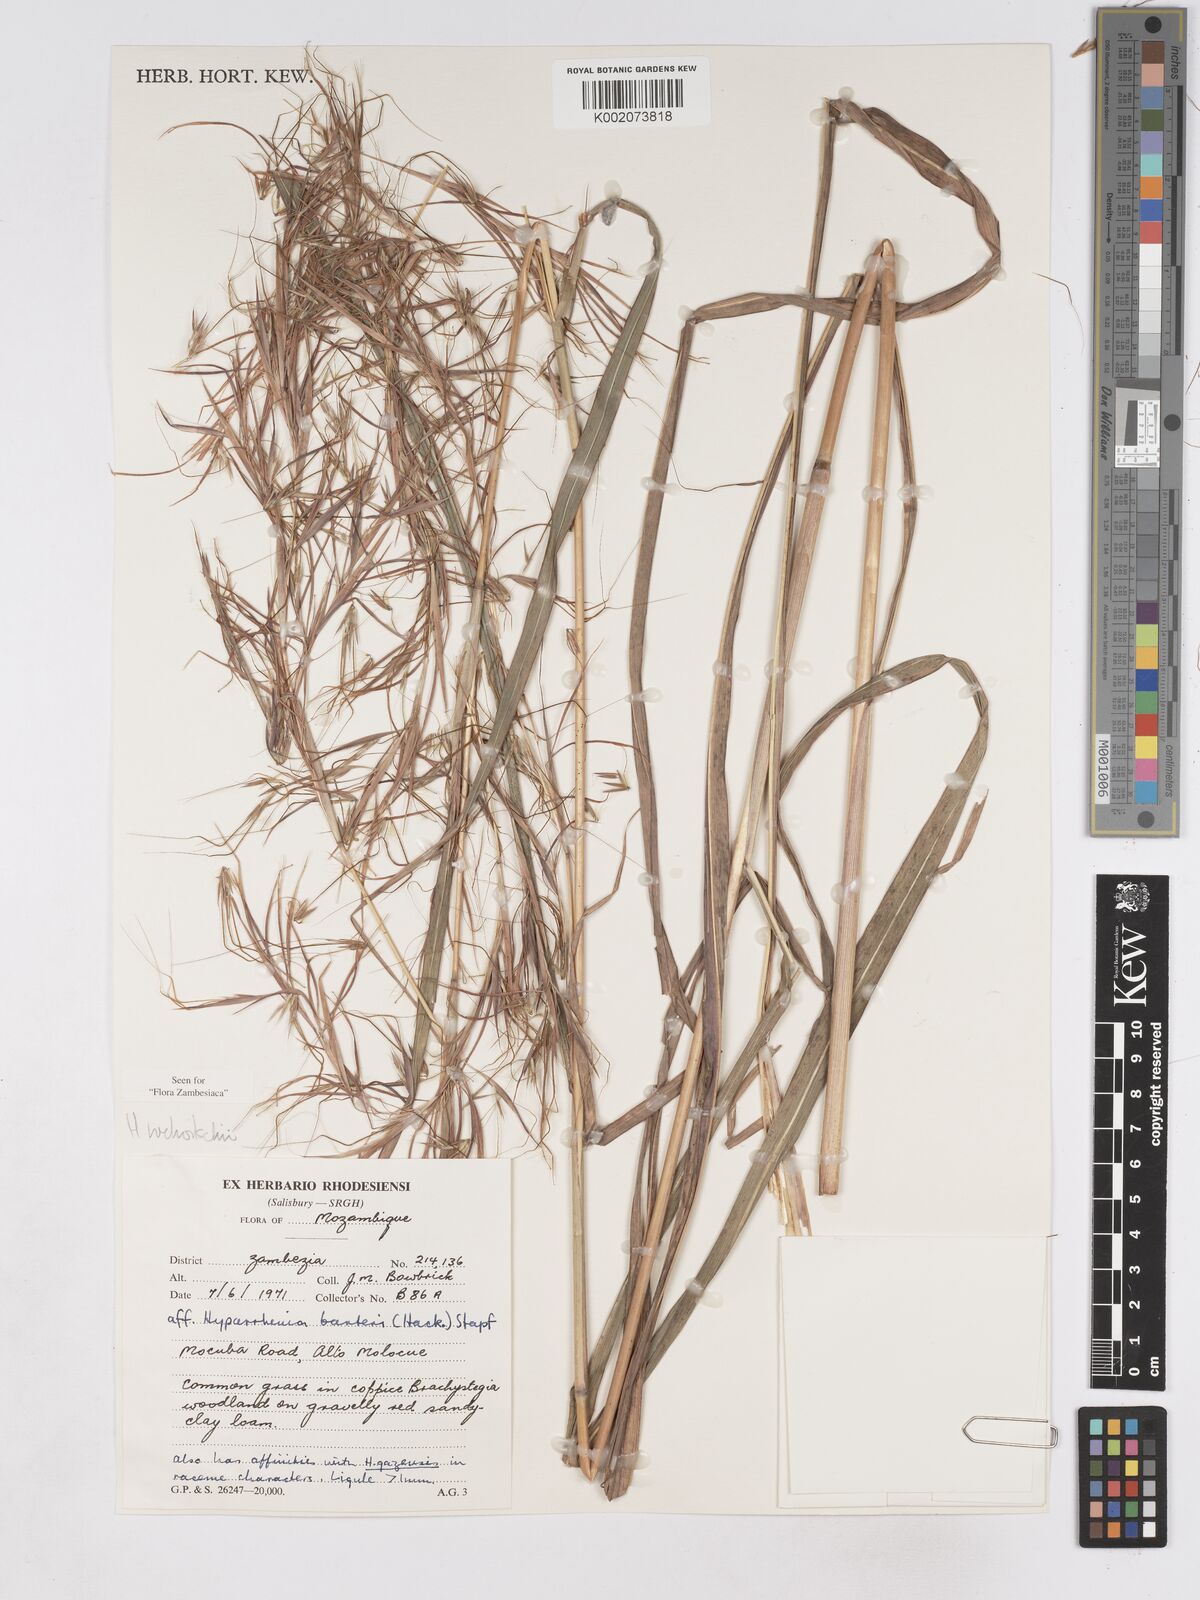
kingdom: Plantae
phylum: Tracheophyta
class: Liliopsida
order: Poales
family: Poaceae
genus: Hyparrhenia
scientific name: Hyparrhenia welwitschii
